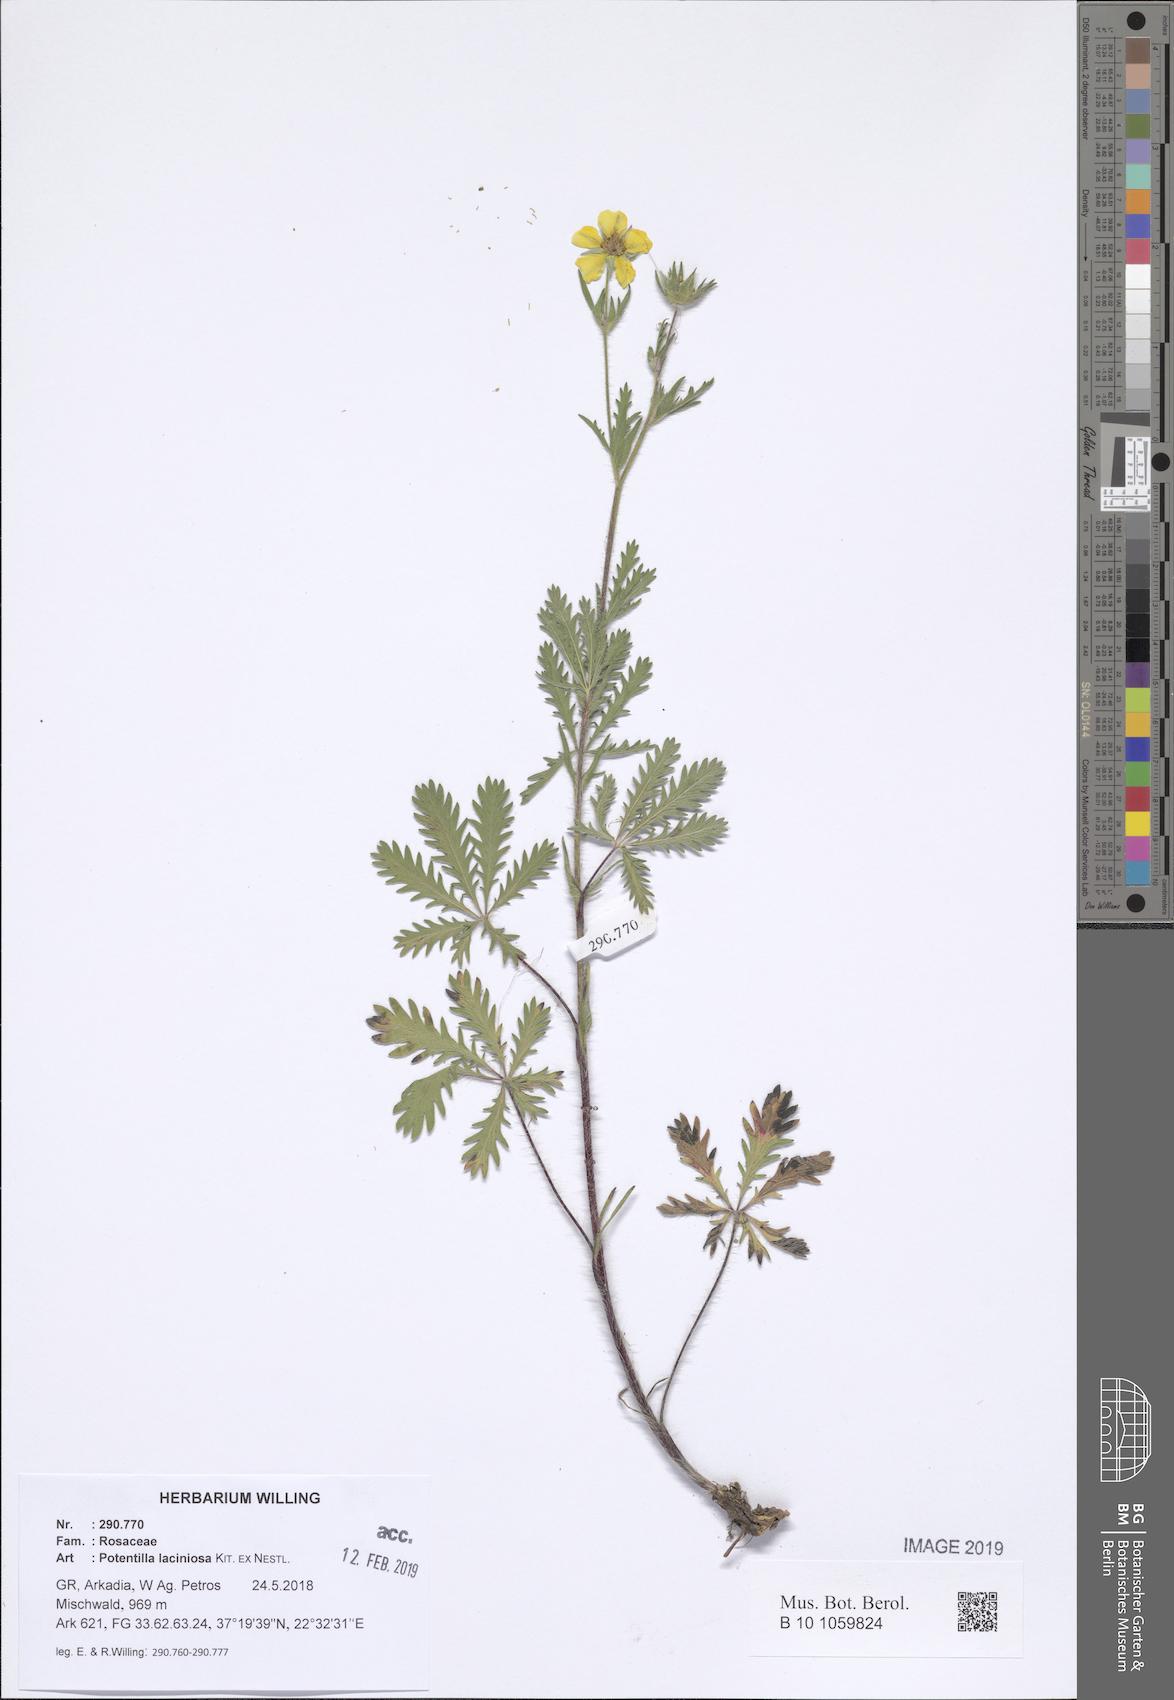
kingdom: Plantae
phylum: Tracheophyta
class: Magnoliopsida
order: Rosales
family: Rosaceae
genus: Potentilla
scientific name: Potentilla recta
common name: Sulphur cinquefoil
